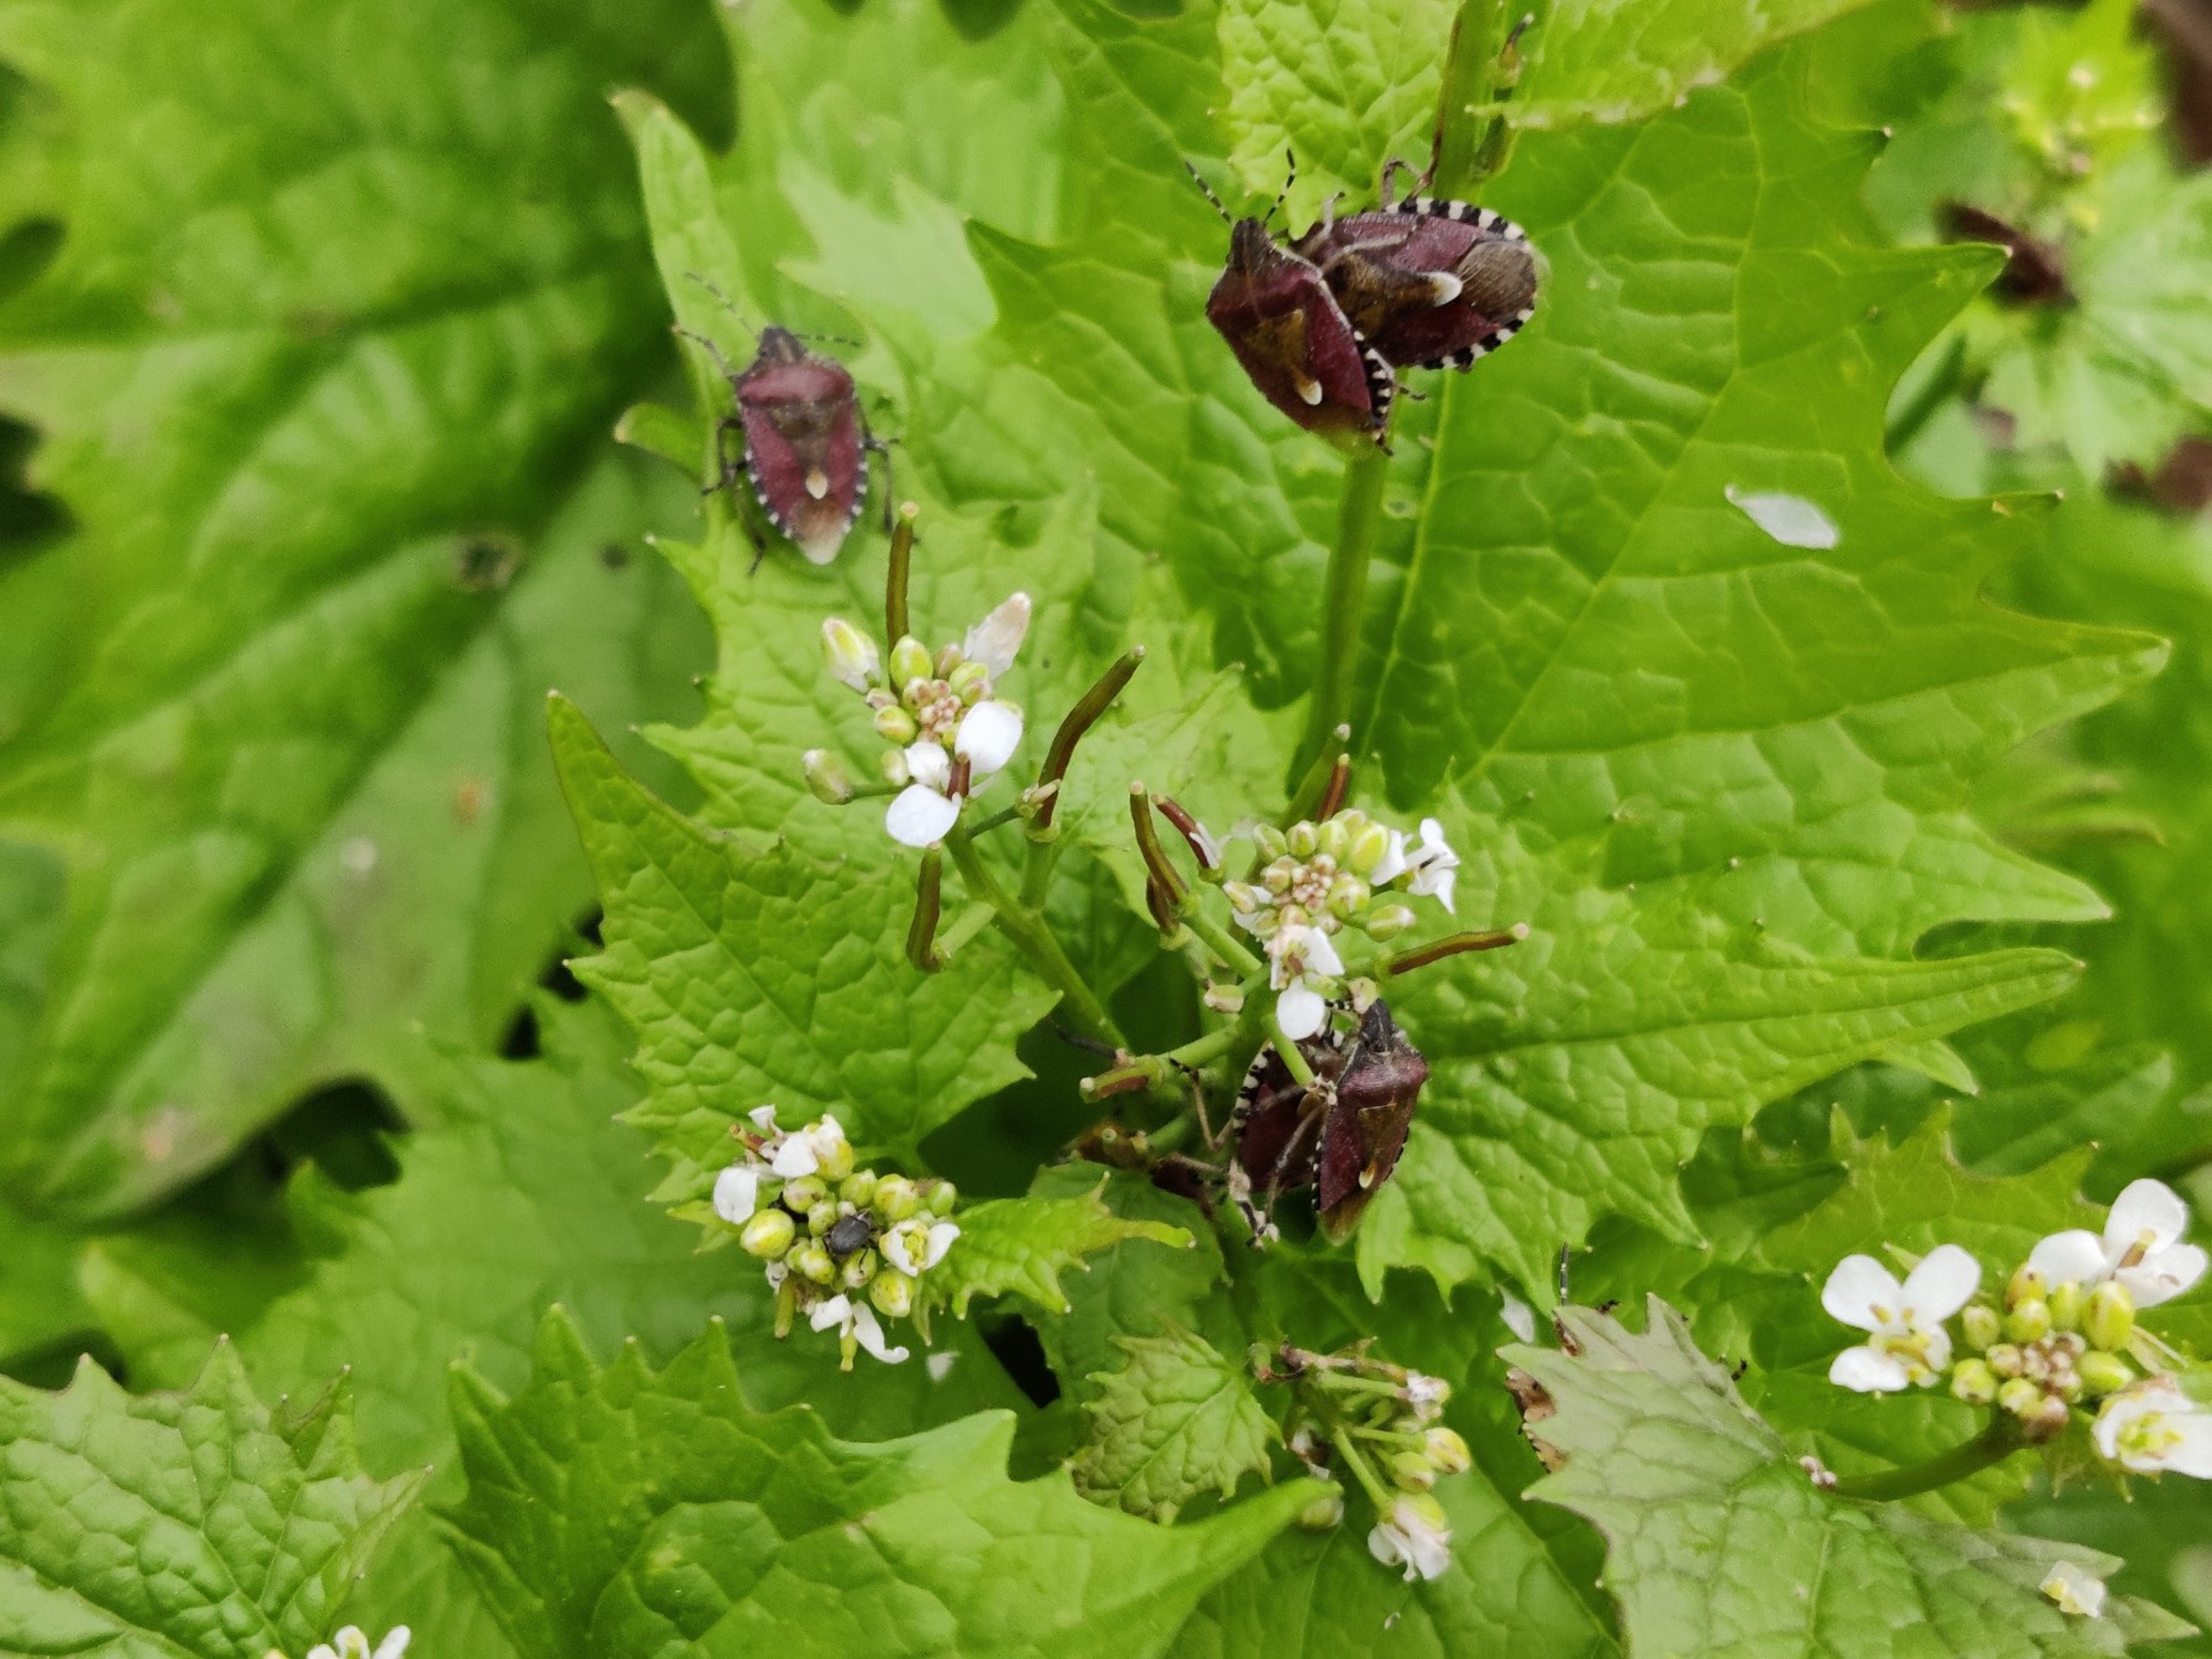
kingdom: Animalia
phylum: Arthropoda
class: Insecta
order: Hemiptera
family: Pentatomidae
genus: Dolycoris
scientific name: Dolycoris baccarum
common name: Almindelig bærtæge
